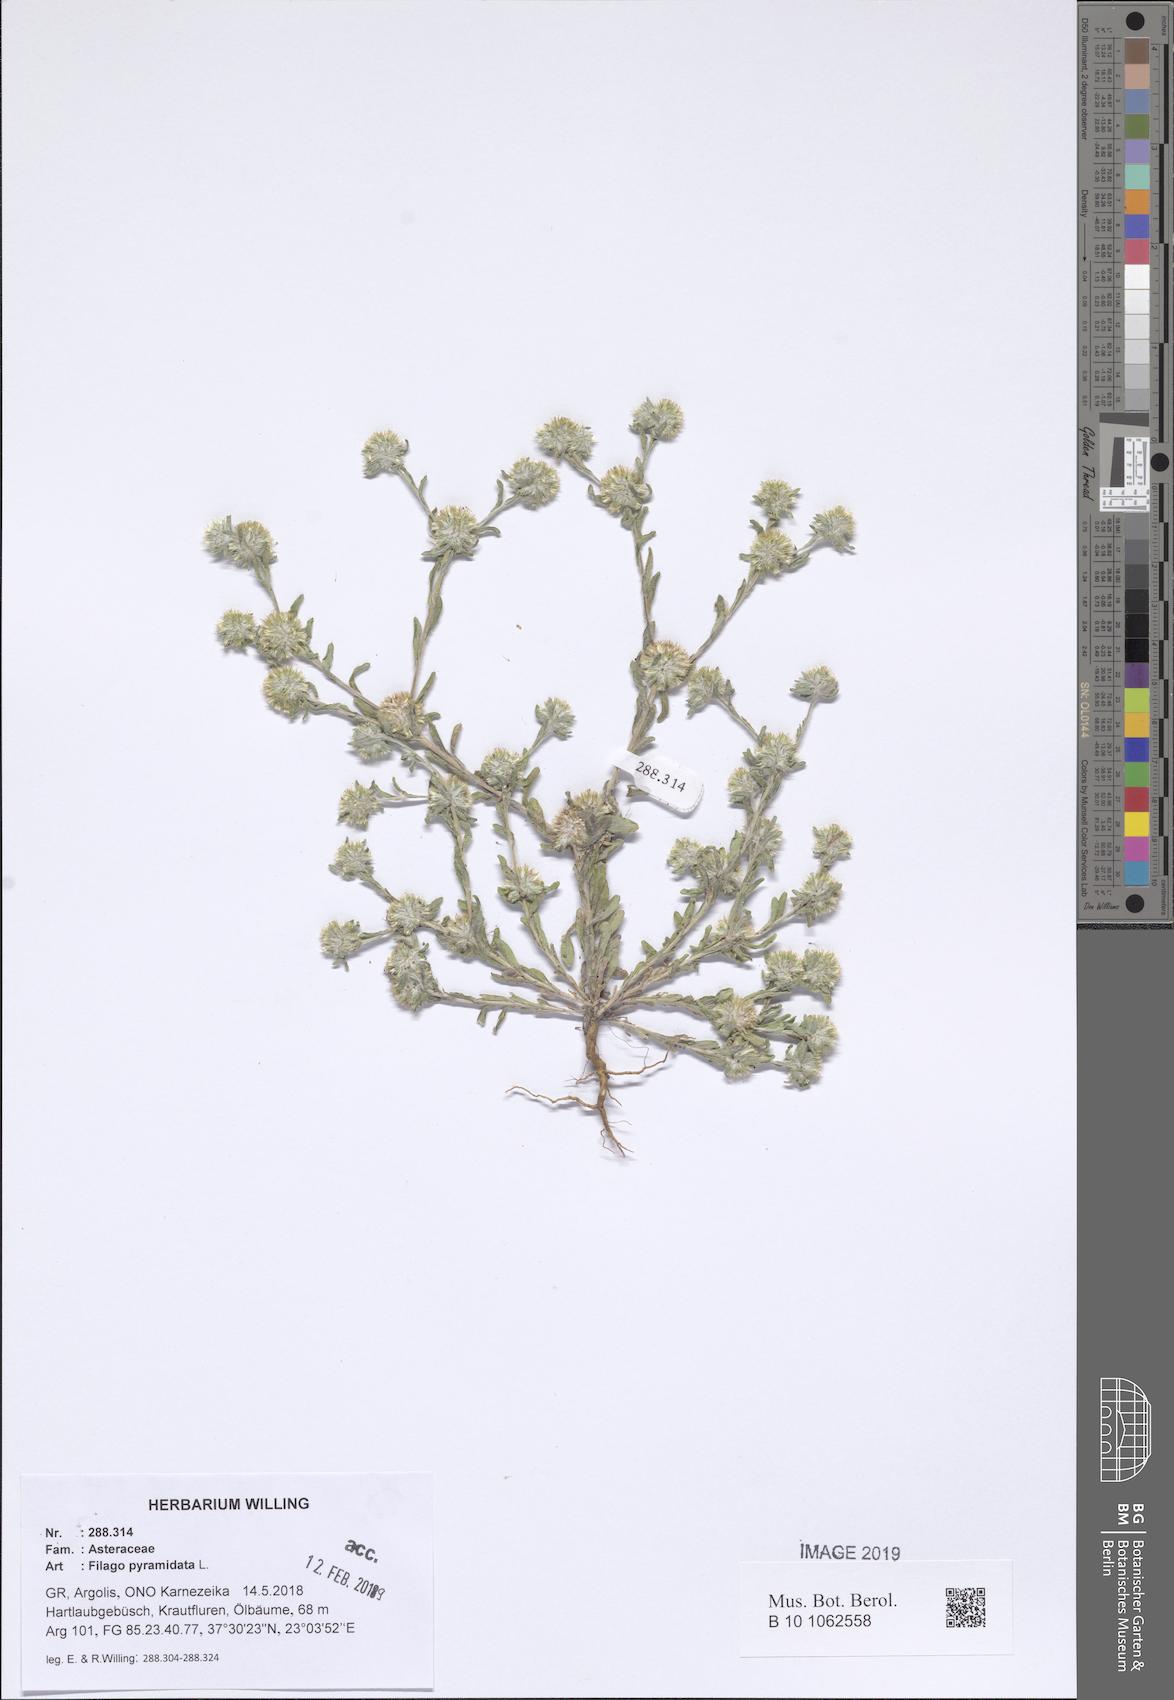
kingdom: Plantae
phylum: Tracheophyta
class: Magnoliopsida
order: Asterales
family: Asteraceae
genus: Filago
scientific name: Filago pyramidata
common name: Broad-leaved cudweed
